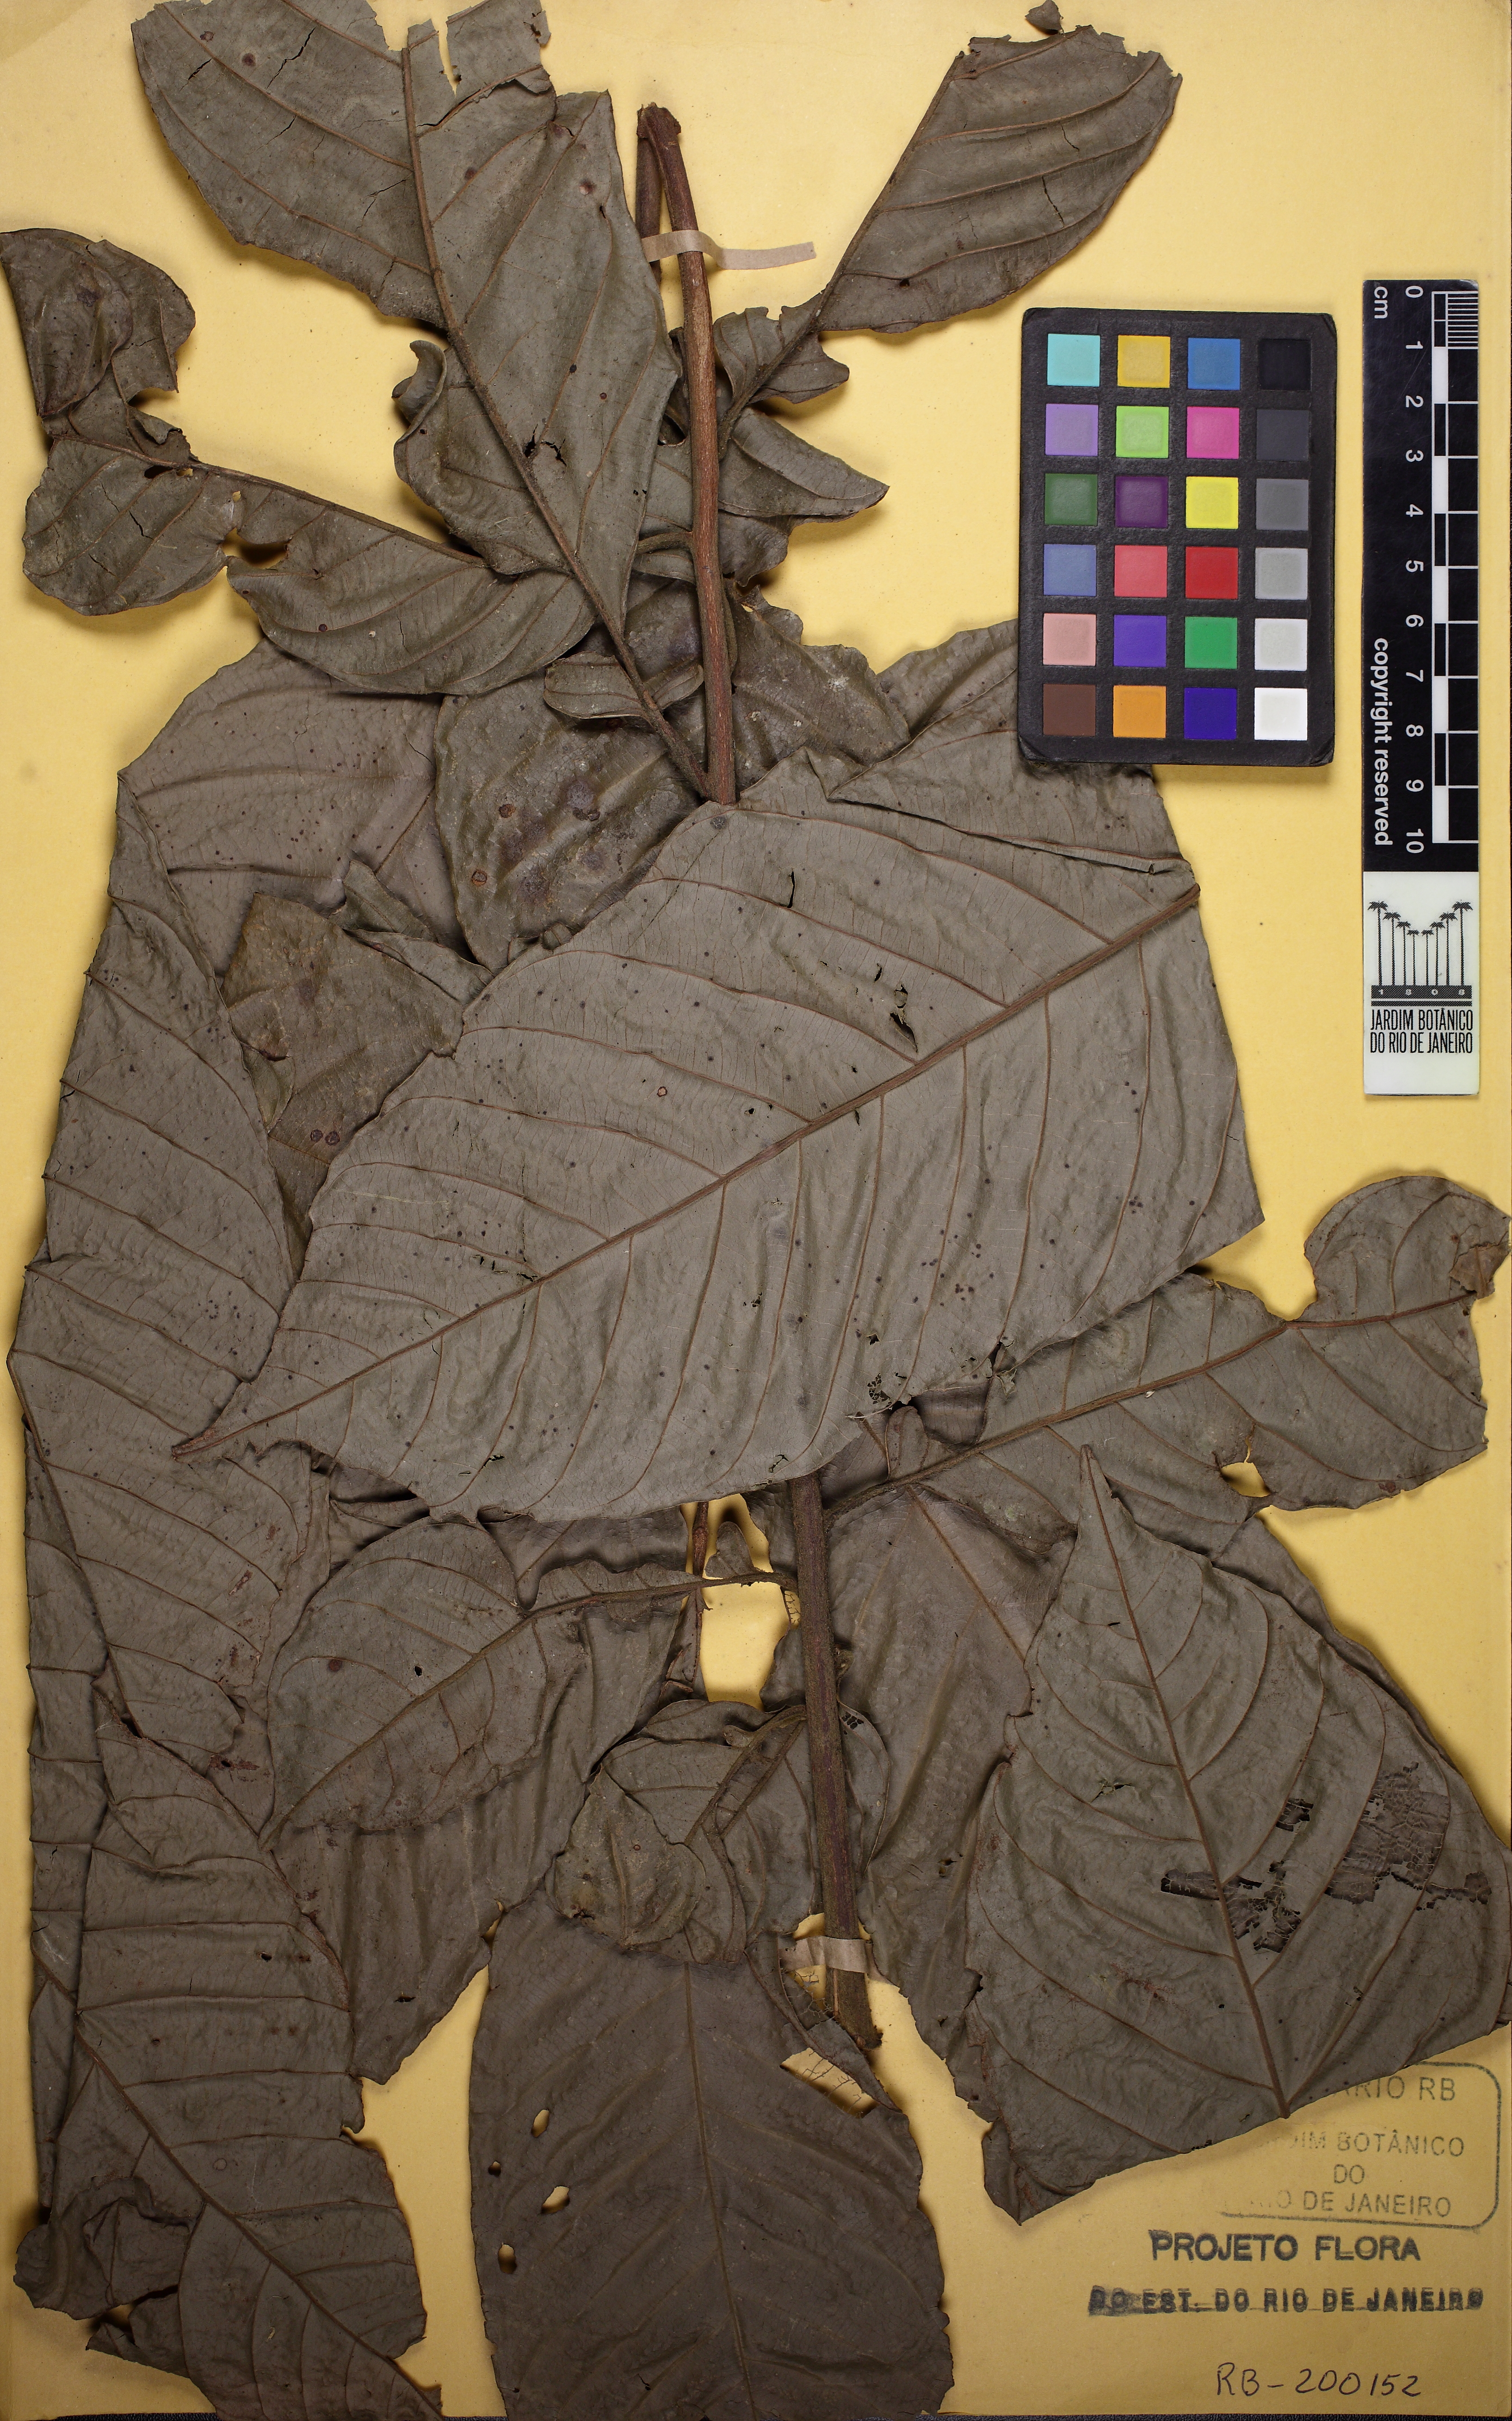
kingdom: Plantae
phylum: Tracheophyta
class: Magnoliopsida
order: Sapindales
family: Meliaceae
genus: Guarea
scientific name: Guarea macrophylla
